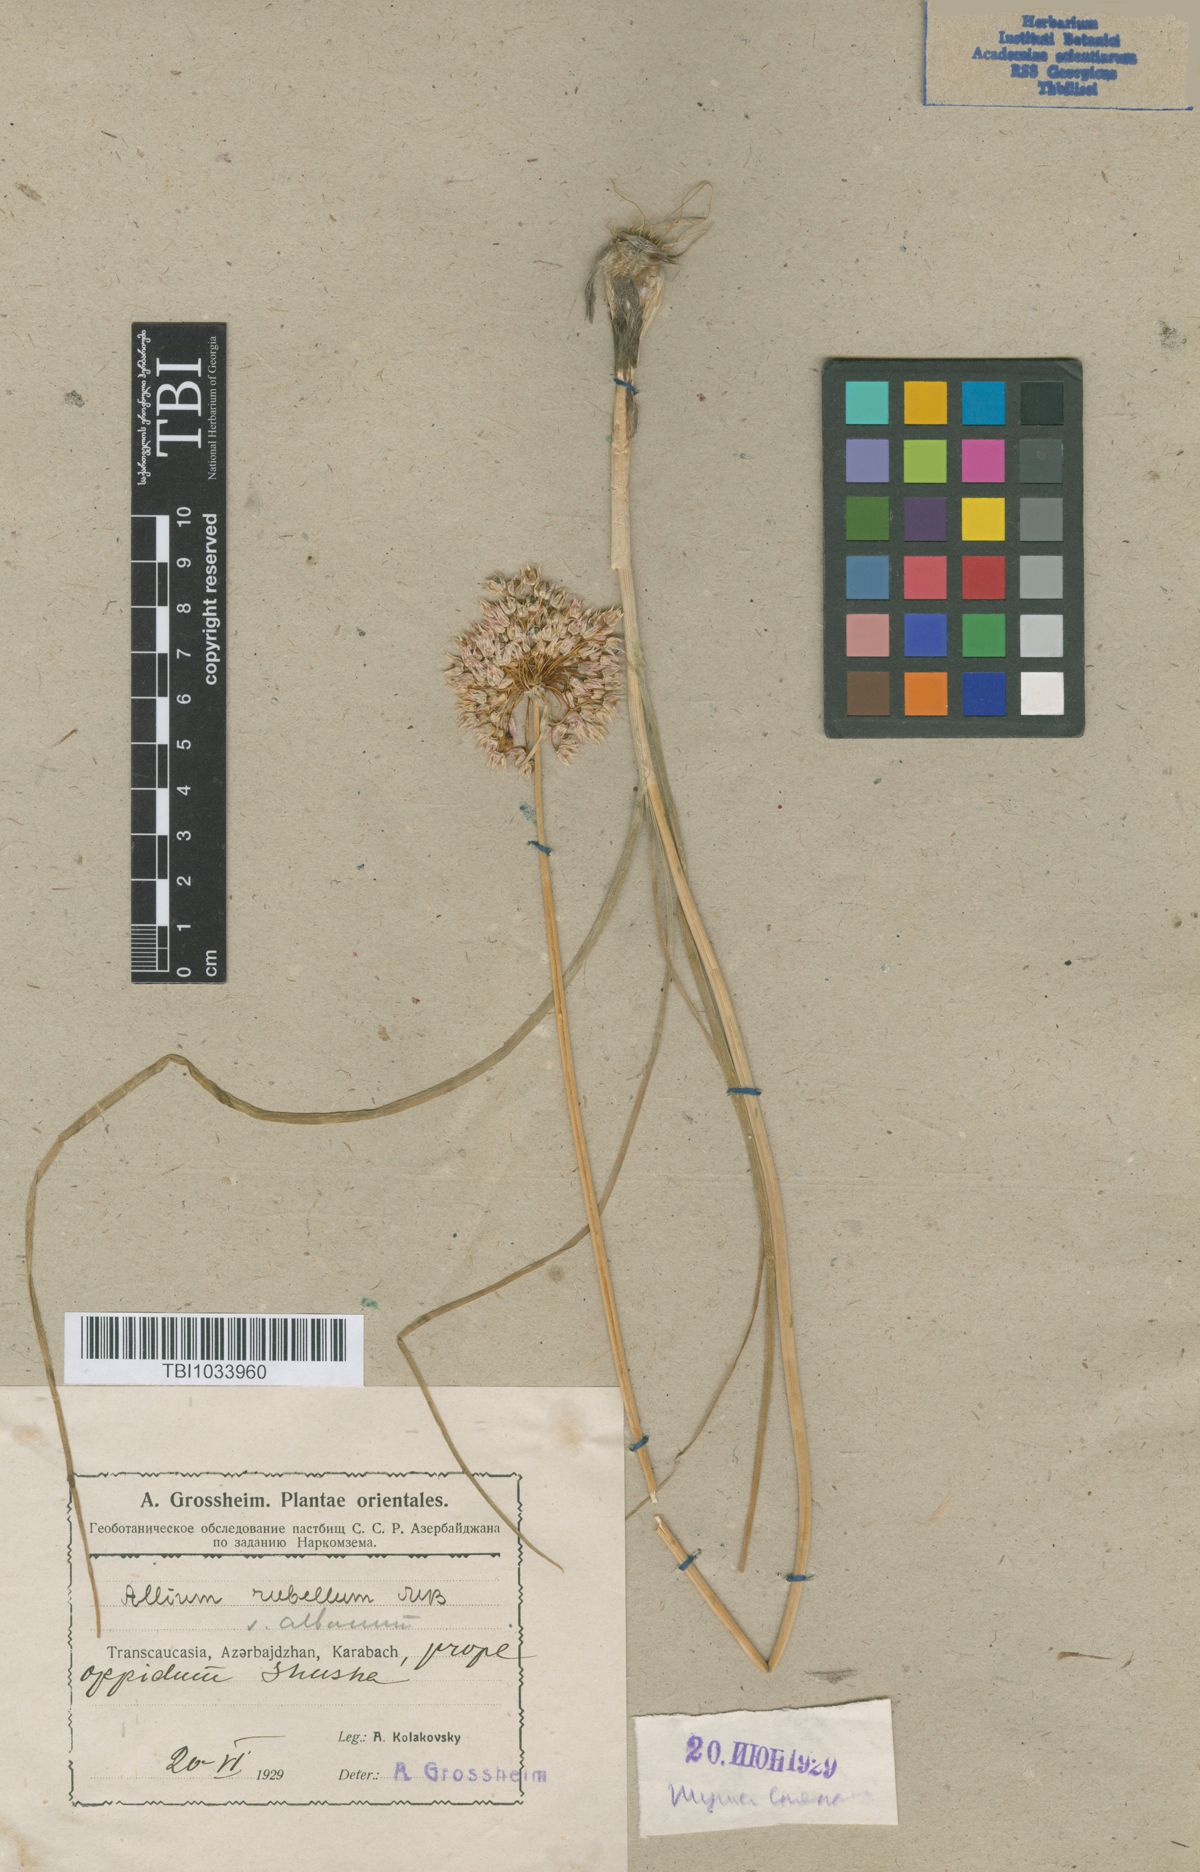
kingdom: Plantae
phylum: Tracheophyta
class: Liliopsida
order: Asparagales
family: Amaryllidaceae
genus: Allium
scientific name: Allium rubellum
